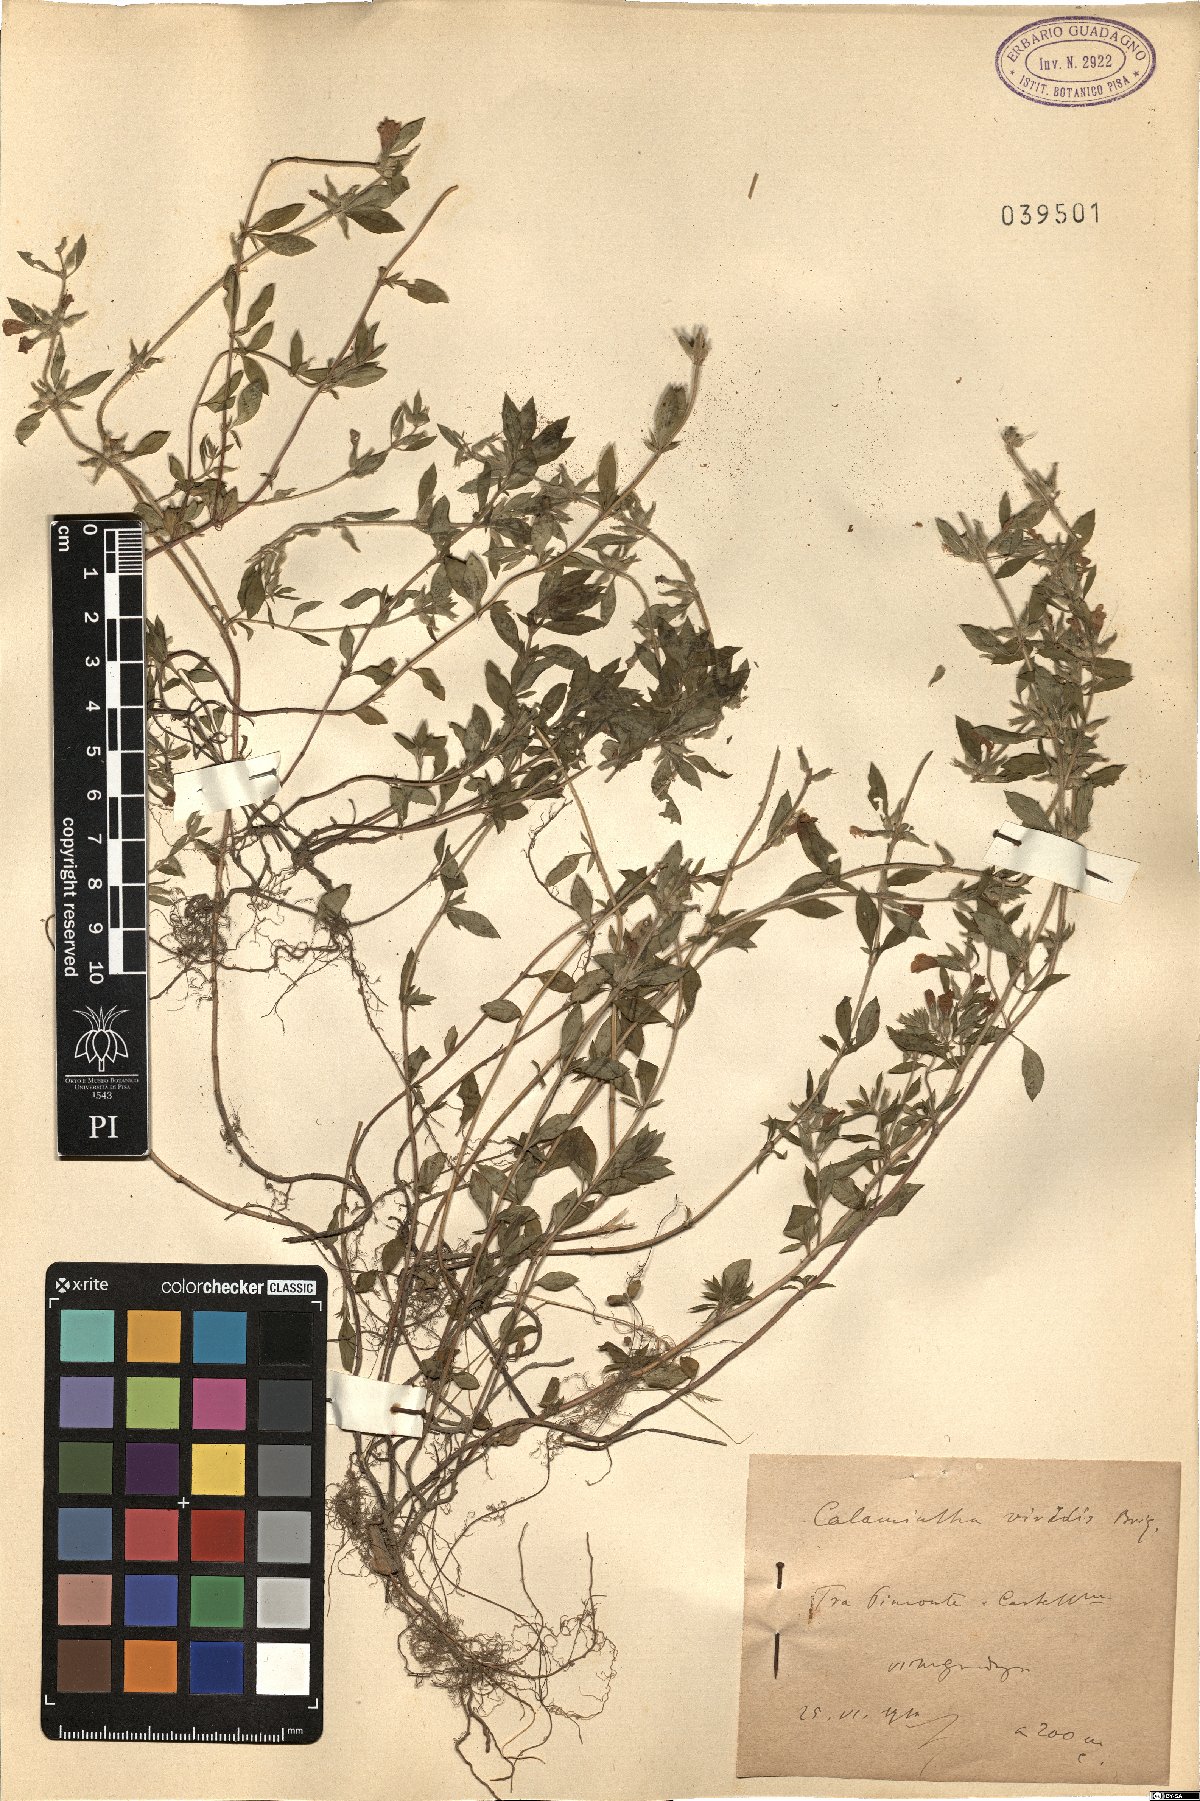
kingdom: Plantae
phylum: Tracheophyta
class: Magnoliopsida
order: Lamiales
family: Lamiaceae
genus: Calamintha
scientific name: Calamintha
